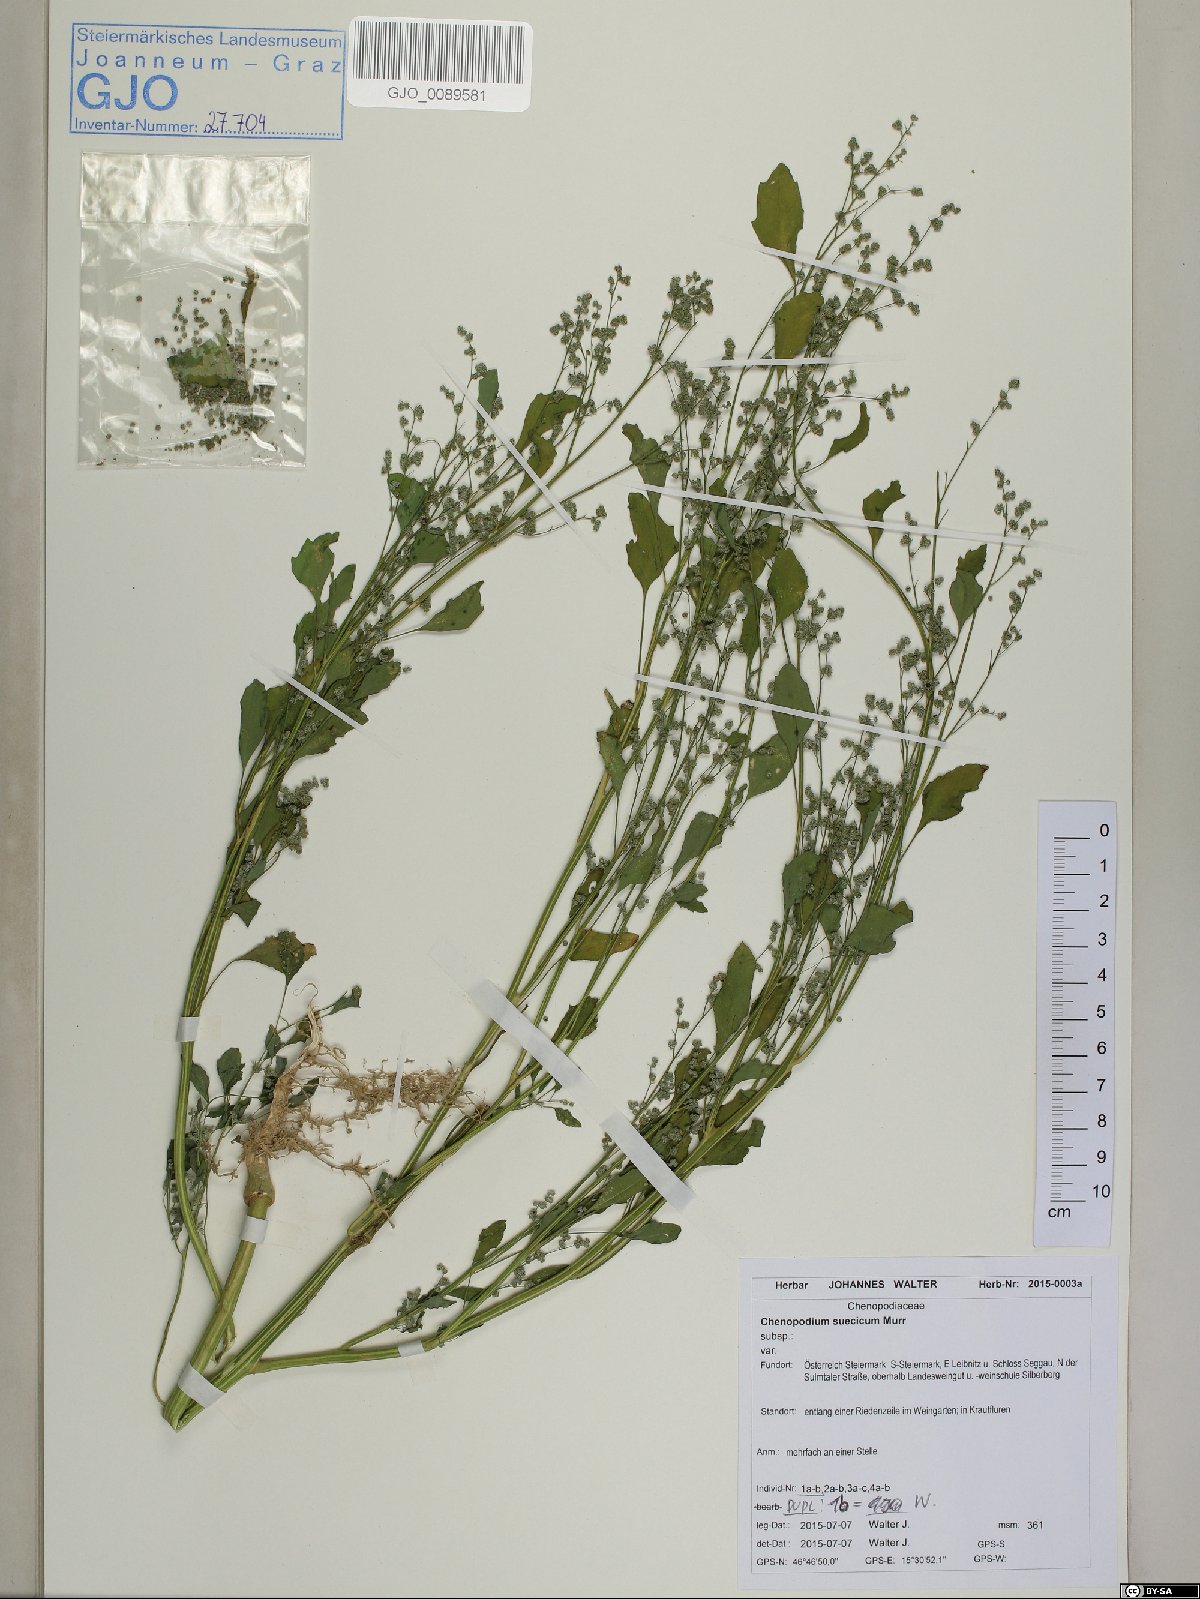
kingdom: Plantae
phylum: Tracheophyta
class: Magnoliopsida
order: Caryophyllales
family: Amaranthaceae
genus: Chenopodium
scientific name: Chenopodium suecicum
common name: Swedish goosefoot
